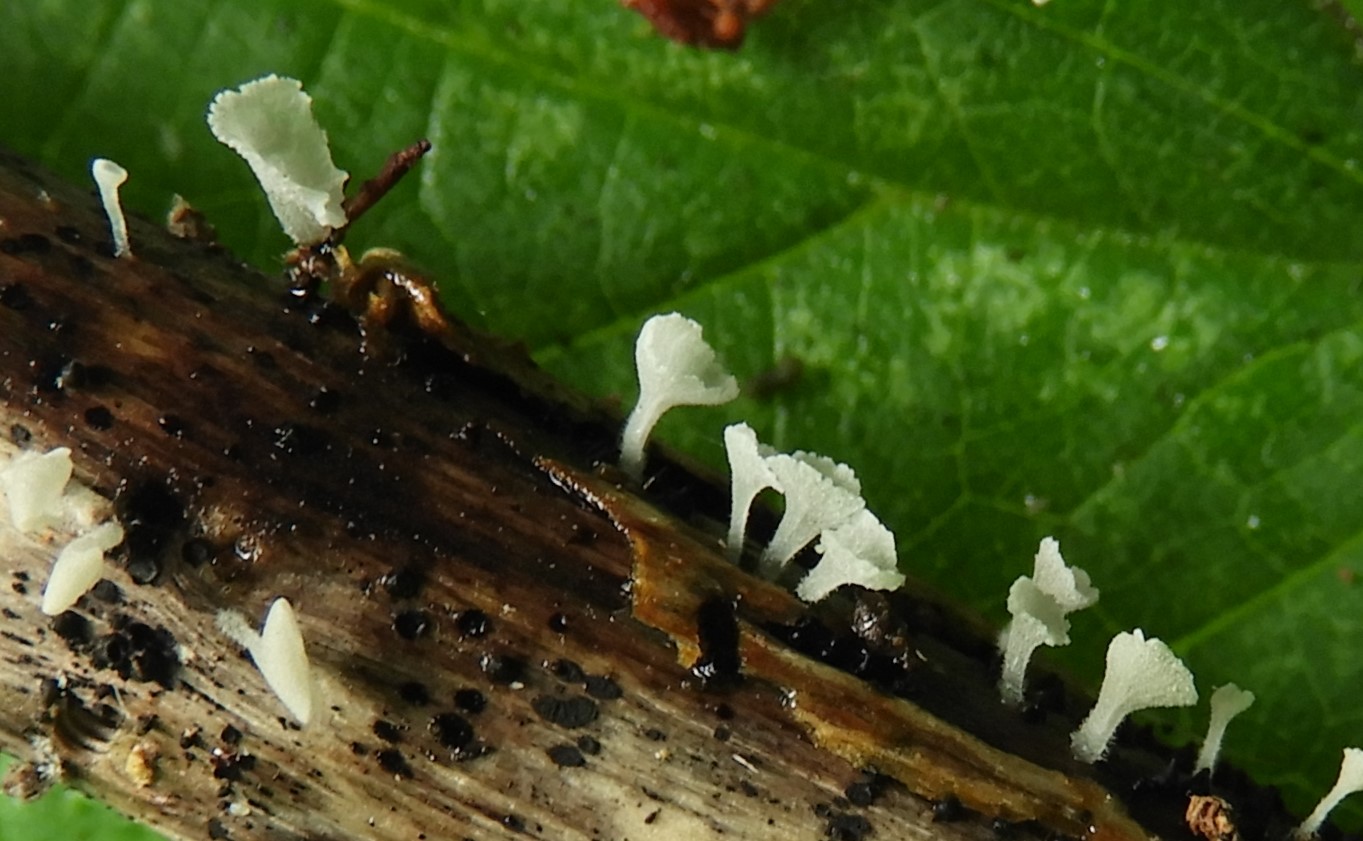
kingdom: Fungi
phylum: Basidiomycota
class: Agaricomycetes
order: Agaricales
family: Marasmiaceae
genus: Calyptella
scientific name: Calyptella capula
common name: hvidlig nældehue
